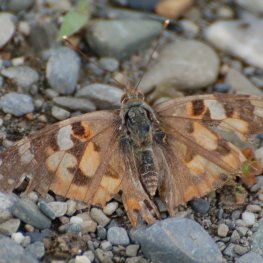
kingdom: Animalia
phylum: Arthropoda
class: Insecta
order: Lepidoptera
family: Nymphalidae
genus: Vanessa
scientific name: Vanessa cardui
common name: Painted Lady
